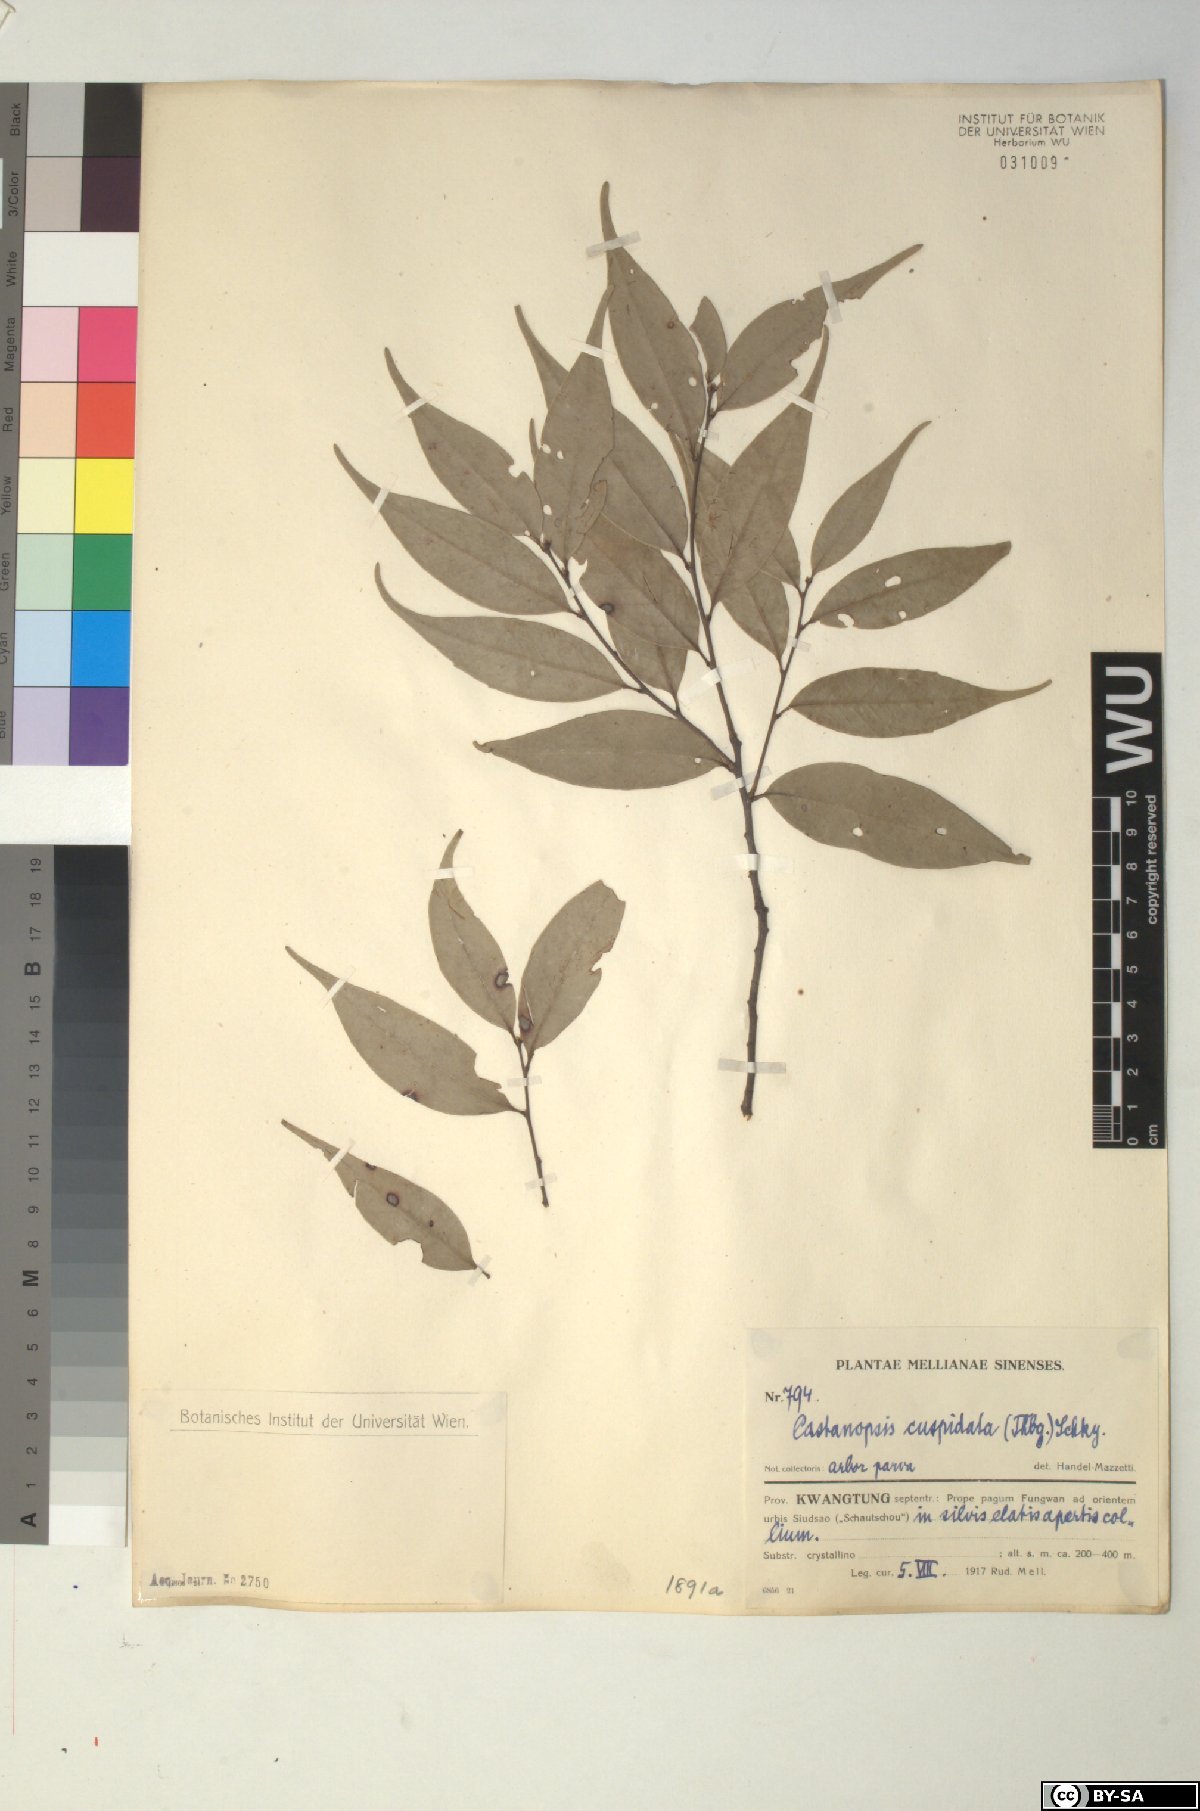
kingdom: Plantae
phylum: Tracheophyta
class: Magnoliopsida
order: Fagales
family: Fagaceae
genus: Castanopsis
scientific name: Castanopsis cuspidata
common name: Japanese chinquapin
